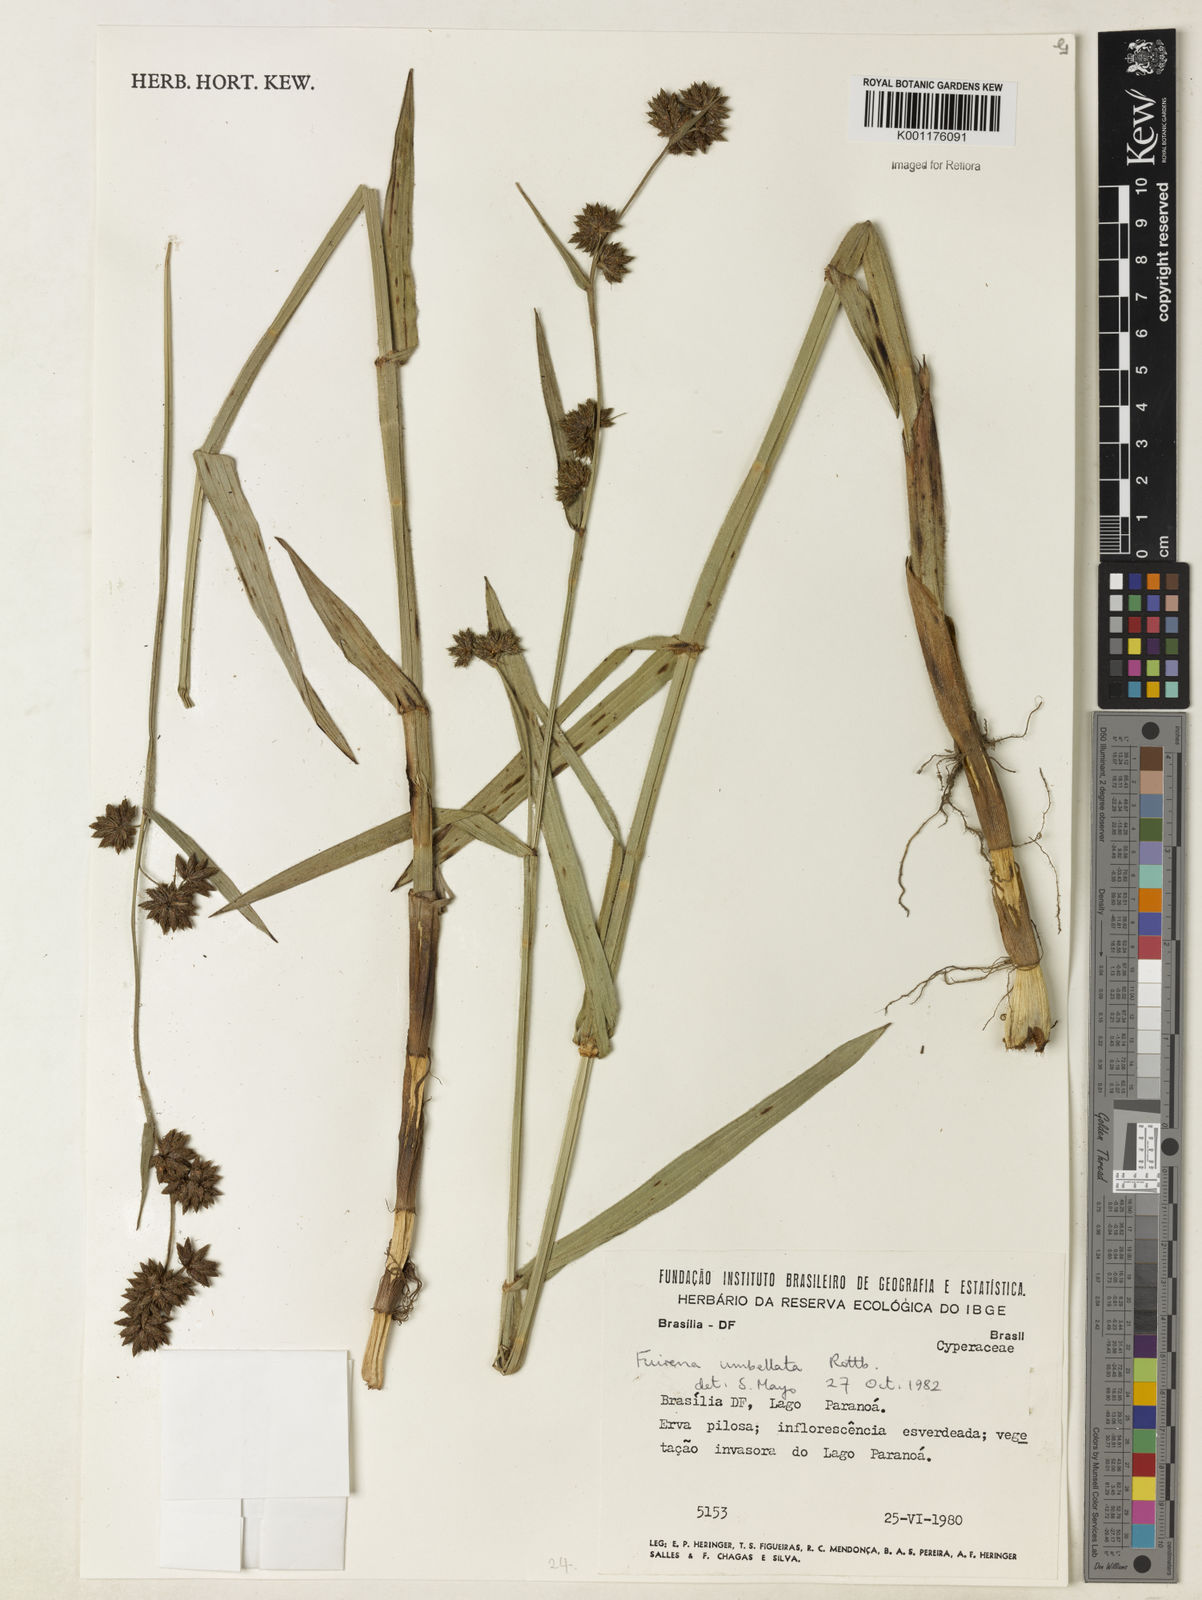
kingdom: Plantae
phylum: Tracheophyta
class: Liliopsida
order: Poales
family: Cyperaceae
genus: Fuirena
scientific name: Fuirena umbellata
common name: Yefen
